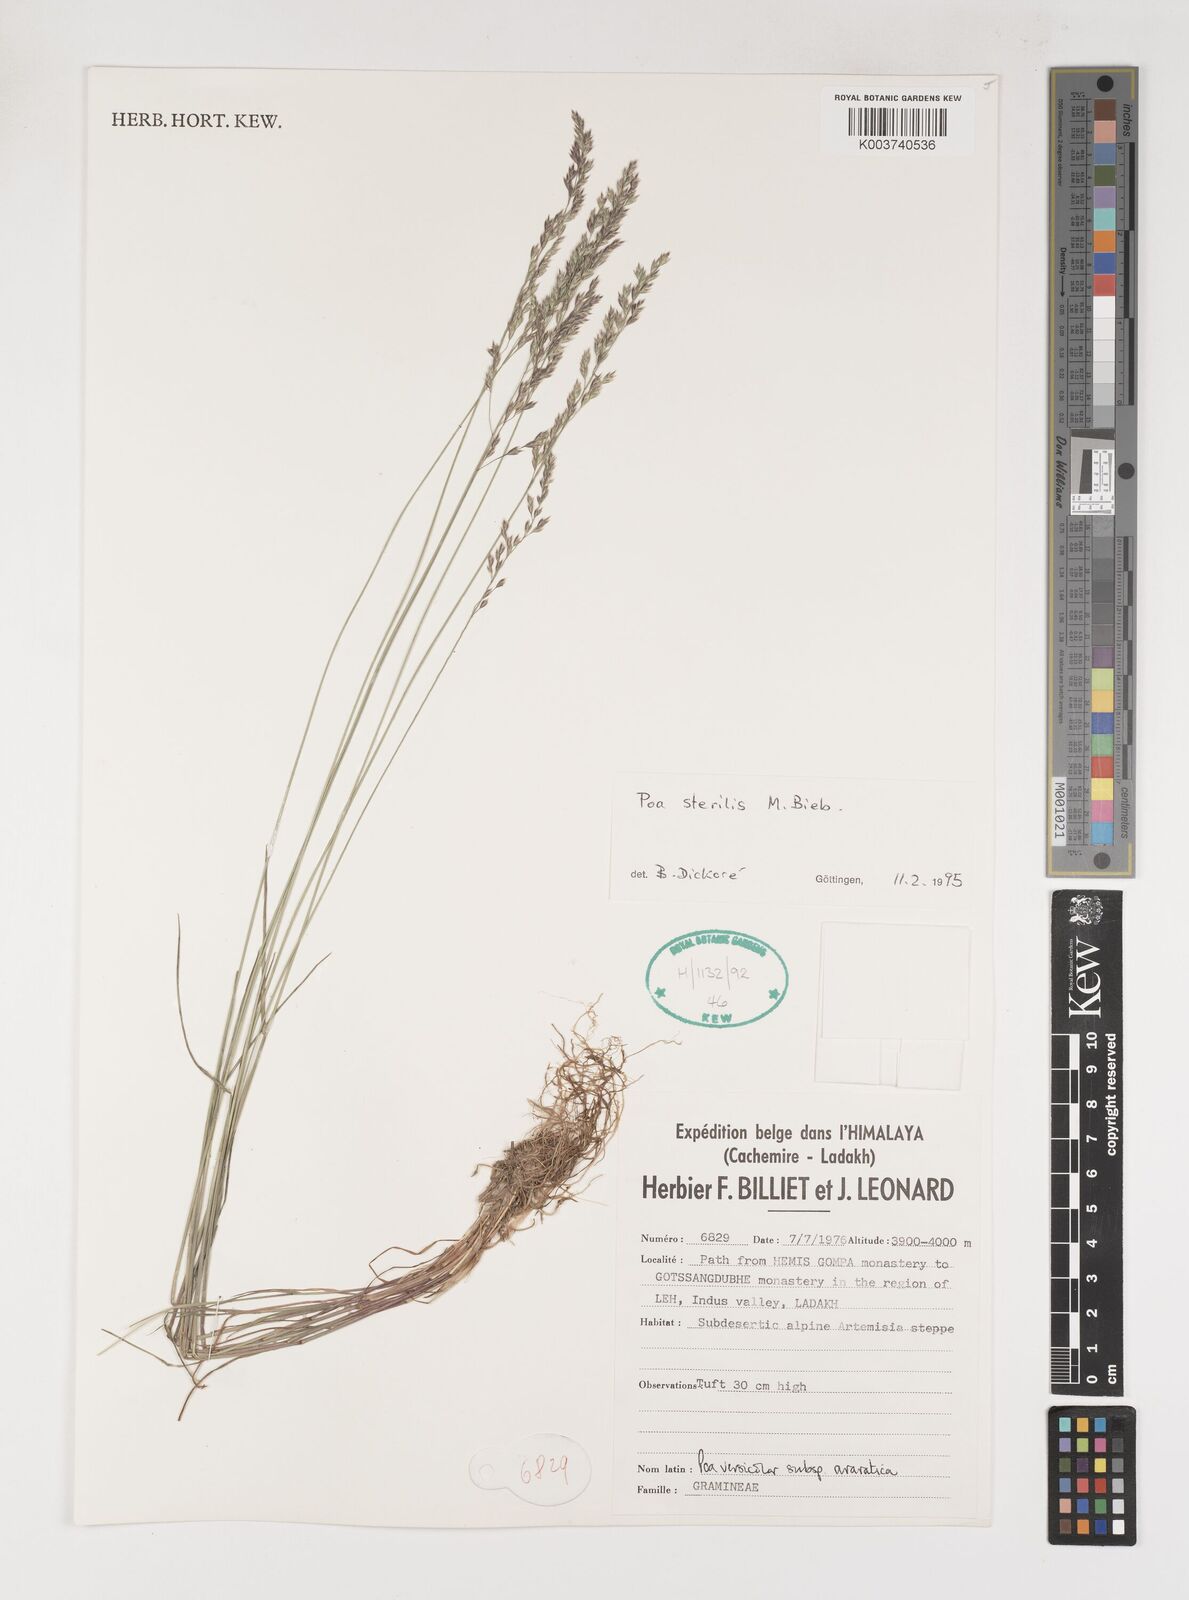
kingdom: Plantae
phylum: Tracheophyta
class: Liliopsida
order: Poales
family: Poaceae
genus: Poa
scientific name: Poa sterilis
